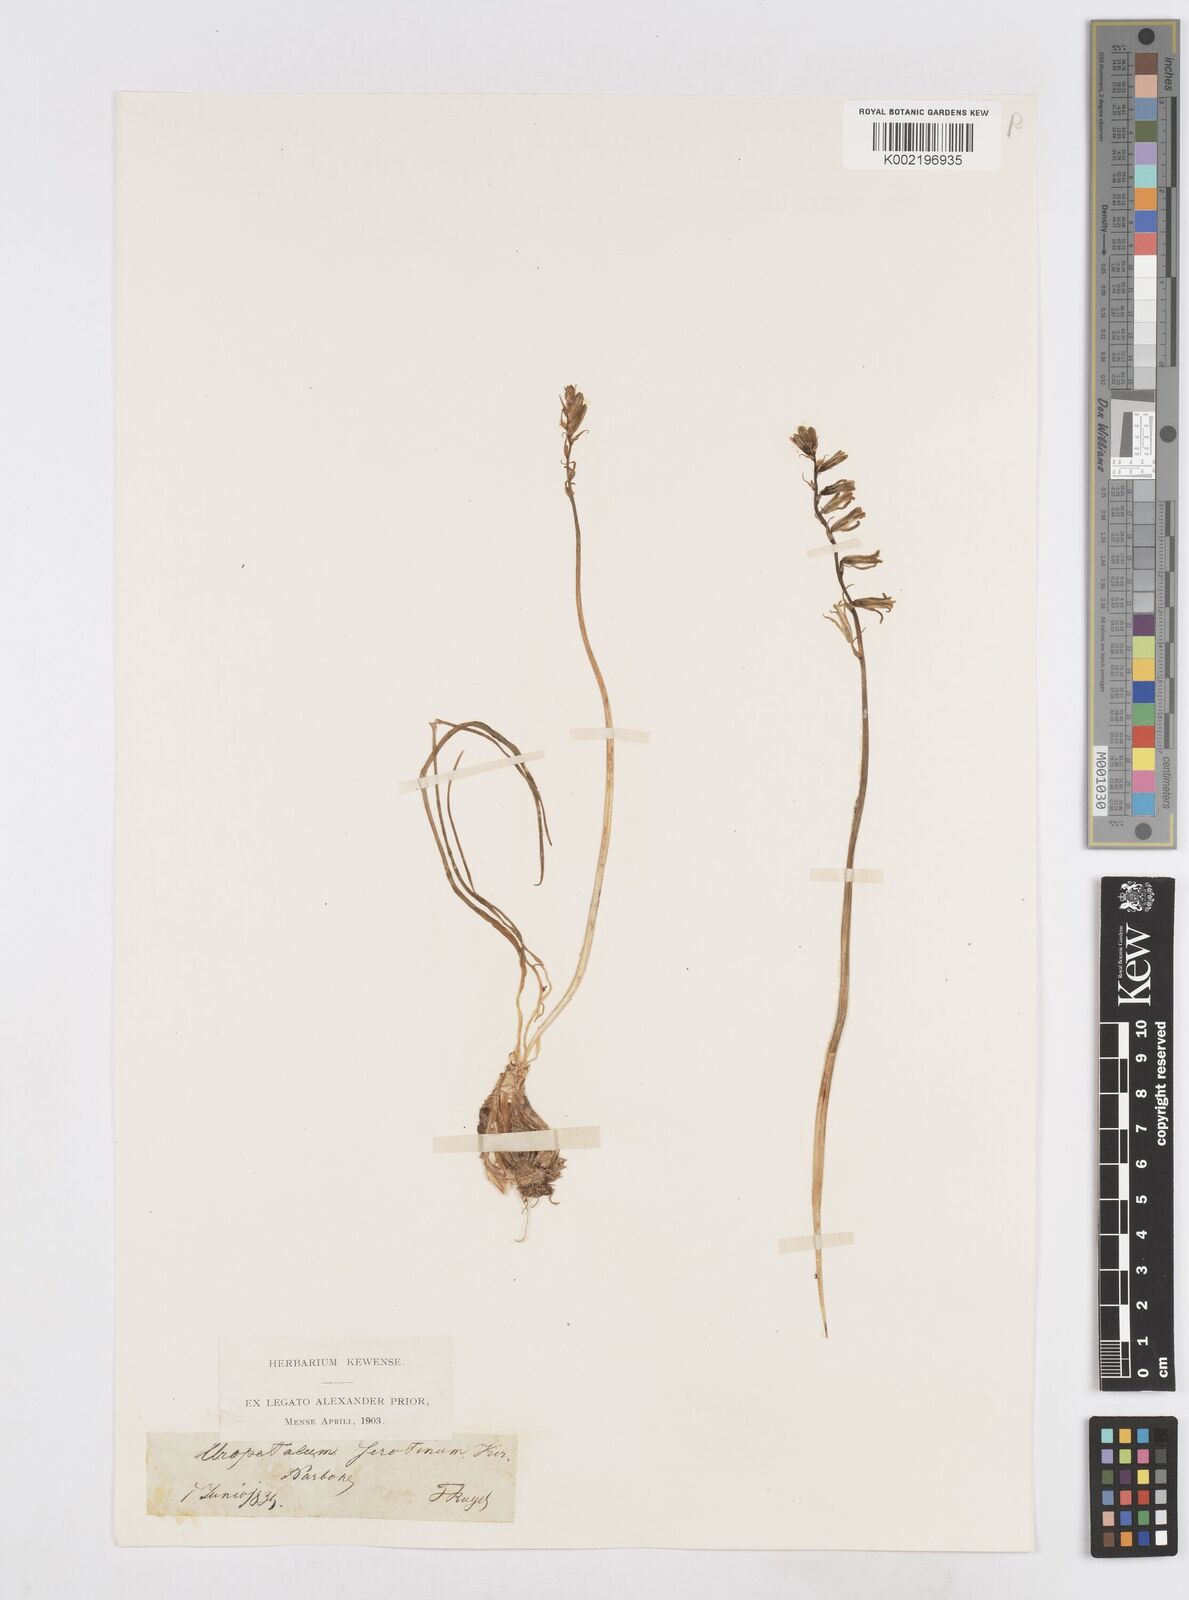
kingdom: Plantae
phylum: Tracheophyta
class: Liliopsida
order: Asparagales
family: Asparagaceae
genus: Dipcadi
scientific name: Dipcadi serotinum
